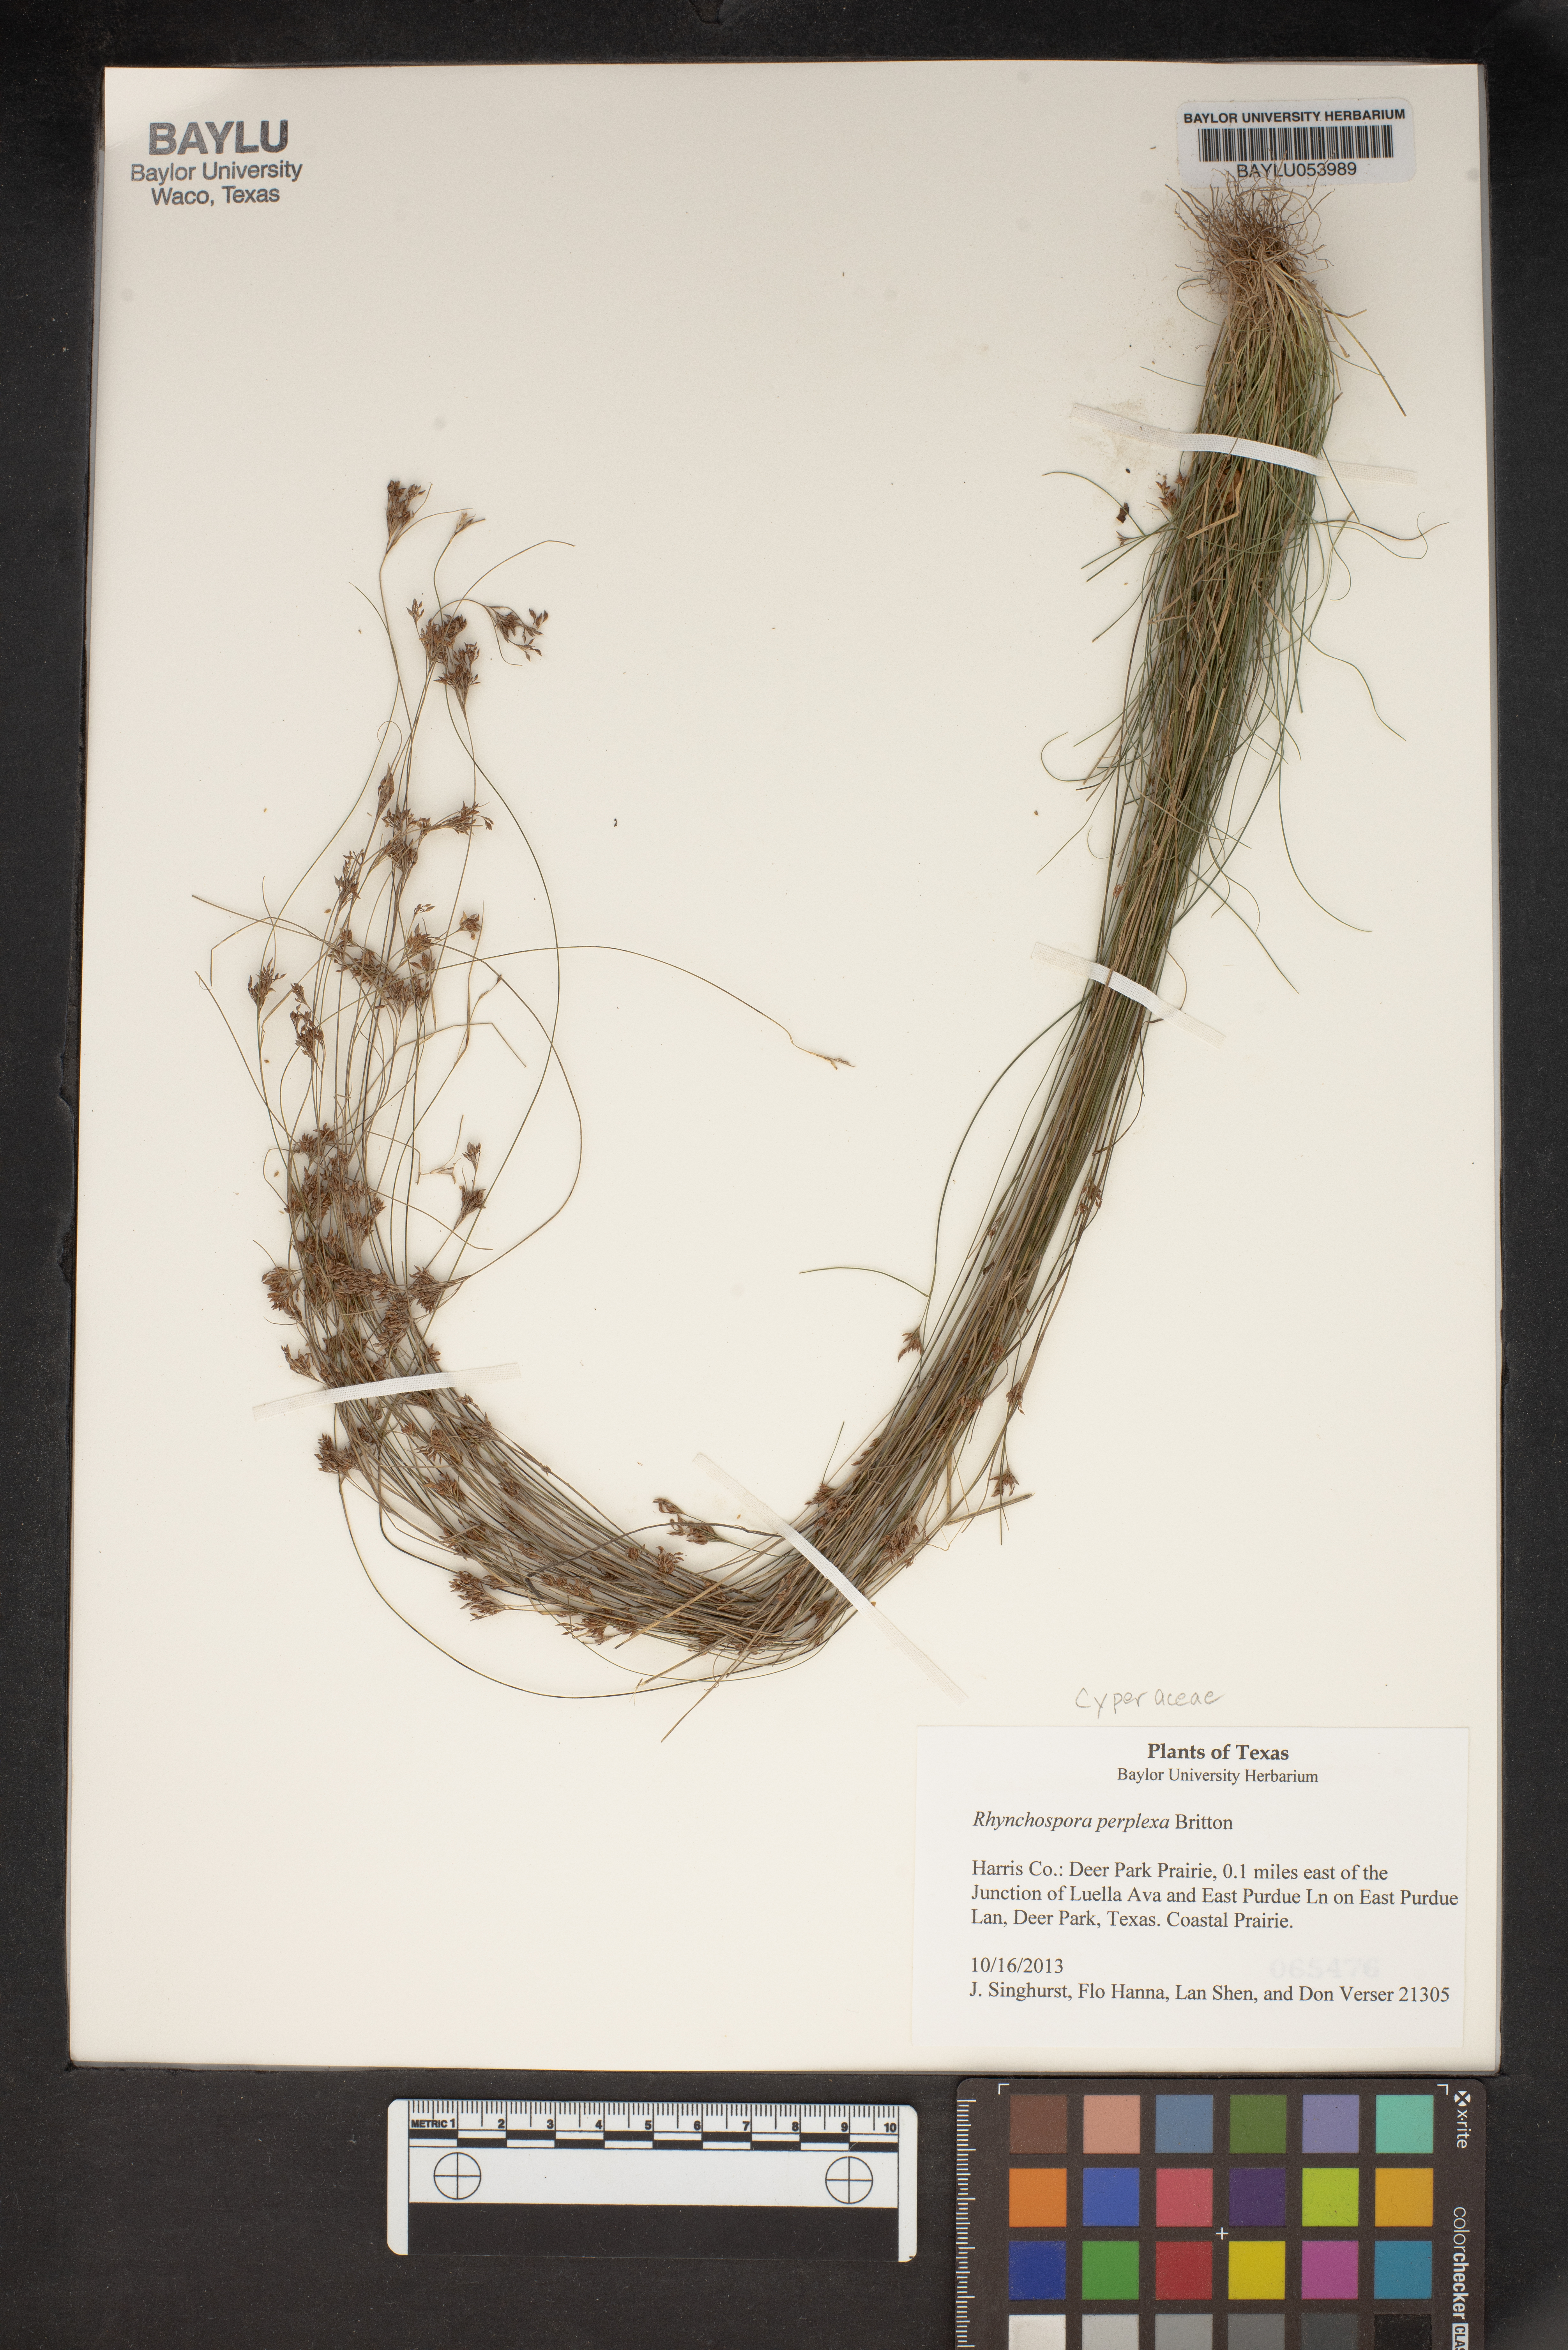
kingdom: Plantae
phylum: Tracheophyta
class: Liliopsida
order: Poales
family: Cyperaceae
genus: Rhynchospora
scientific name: Rhynchospora perplexa
